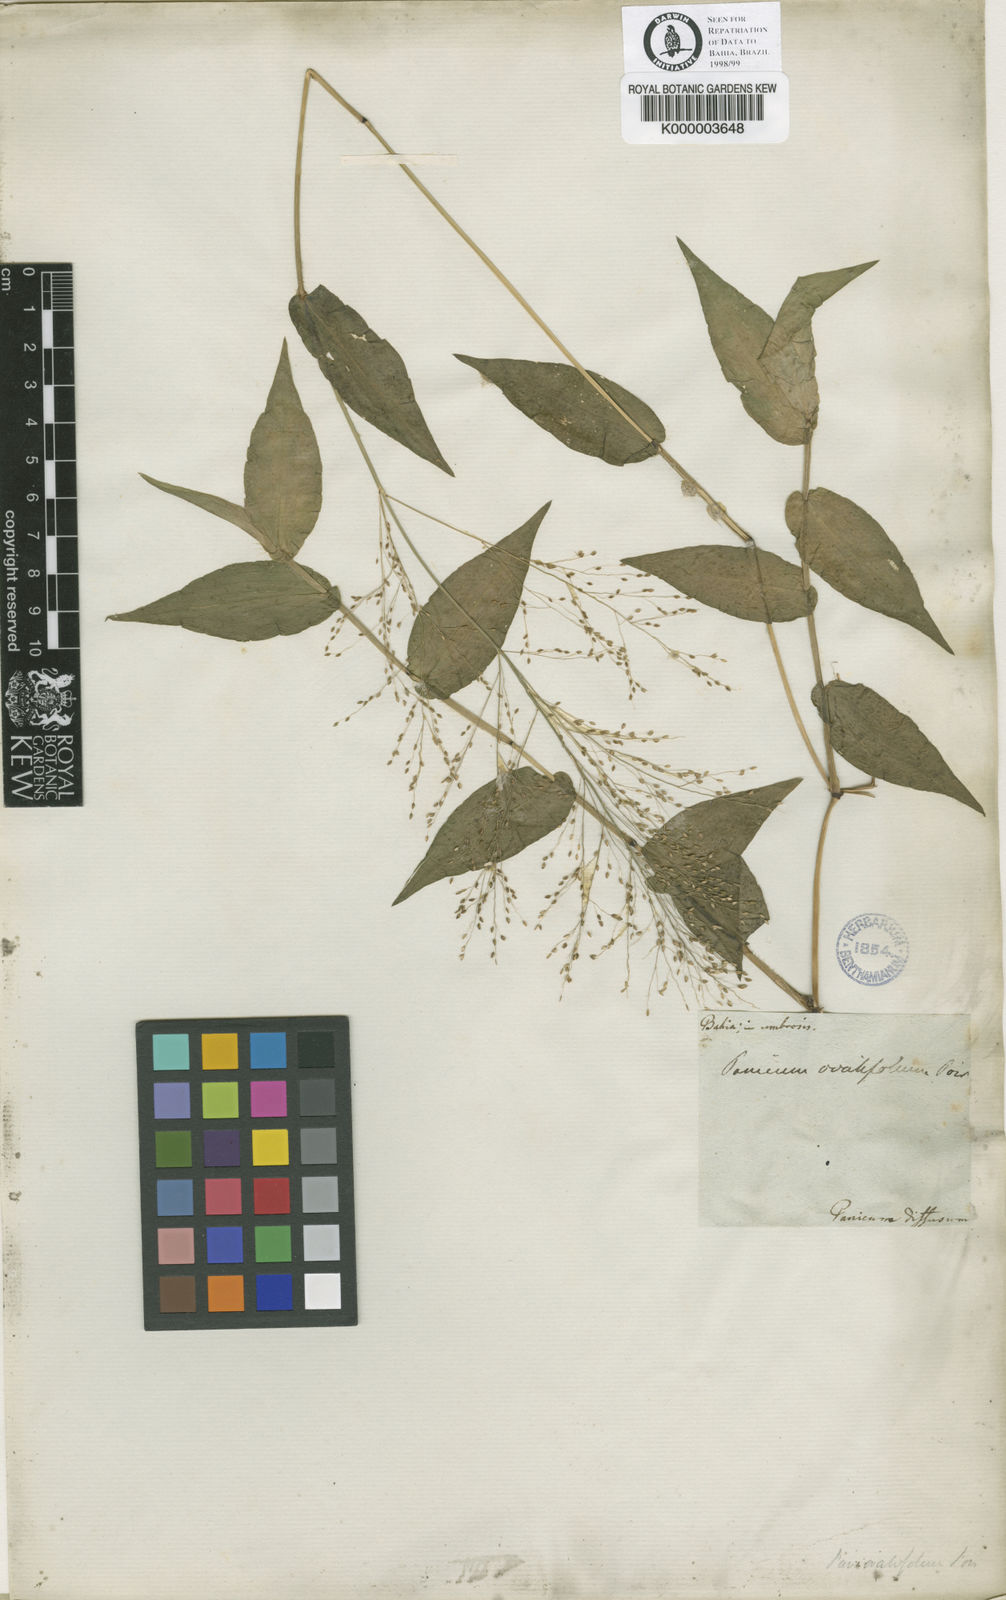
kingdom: Plantae
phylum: Tracheophyta
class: Liliopsida
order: Poales
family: Poaceae
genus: Panicum
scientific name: Panicum brevifolium
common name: Shortleaf panic grass
